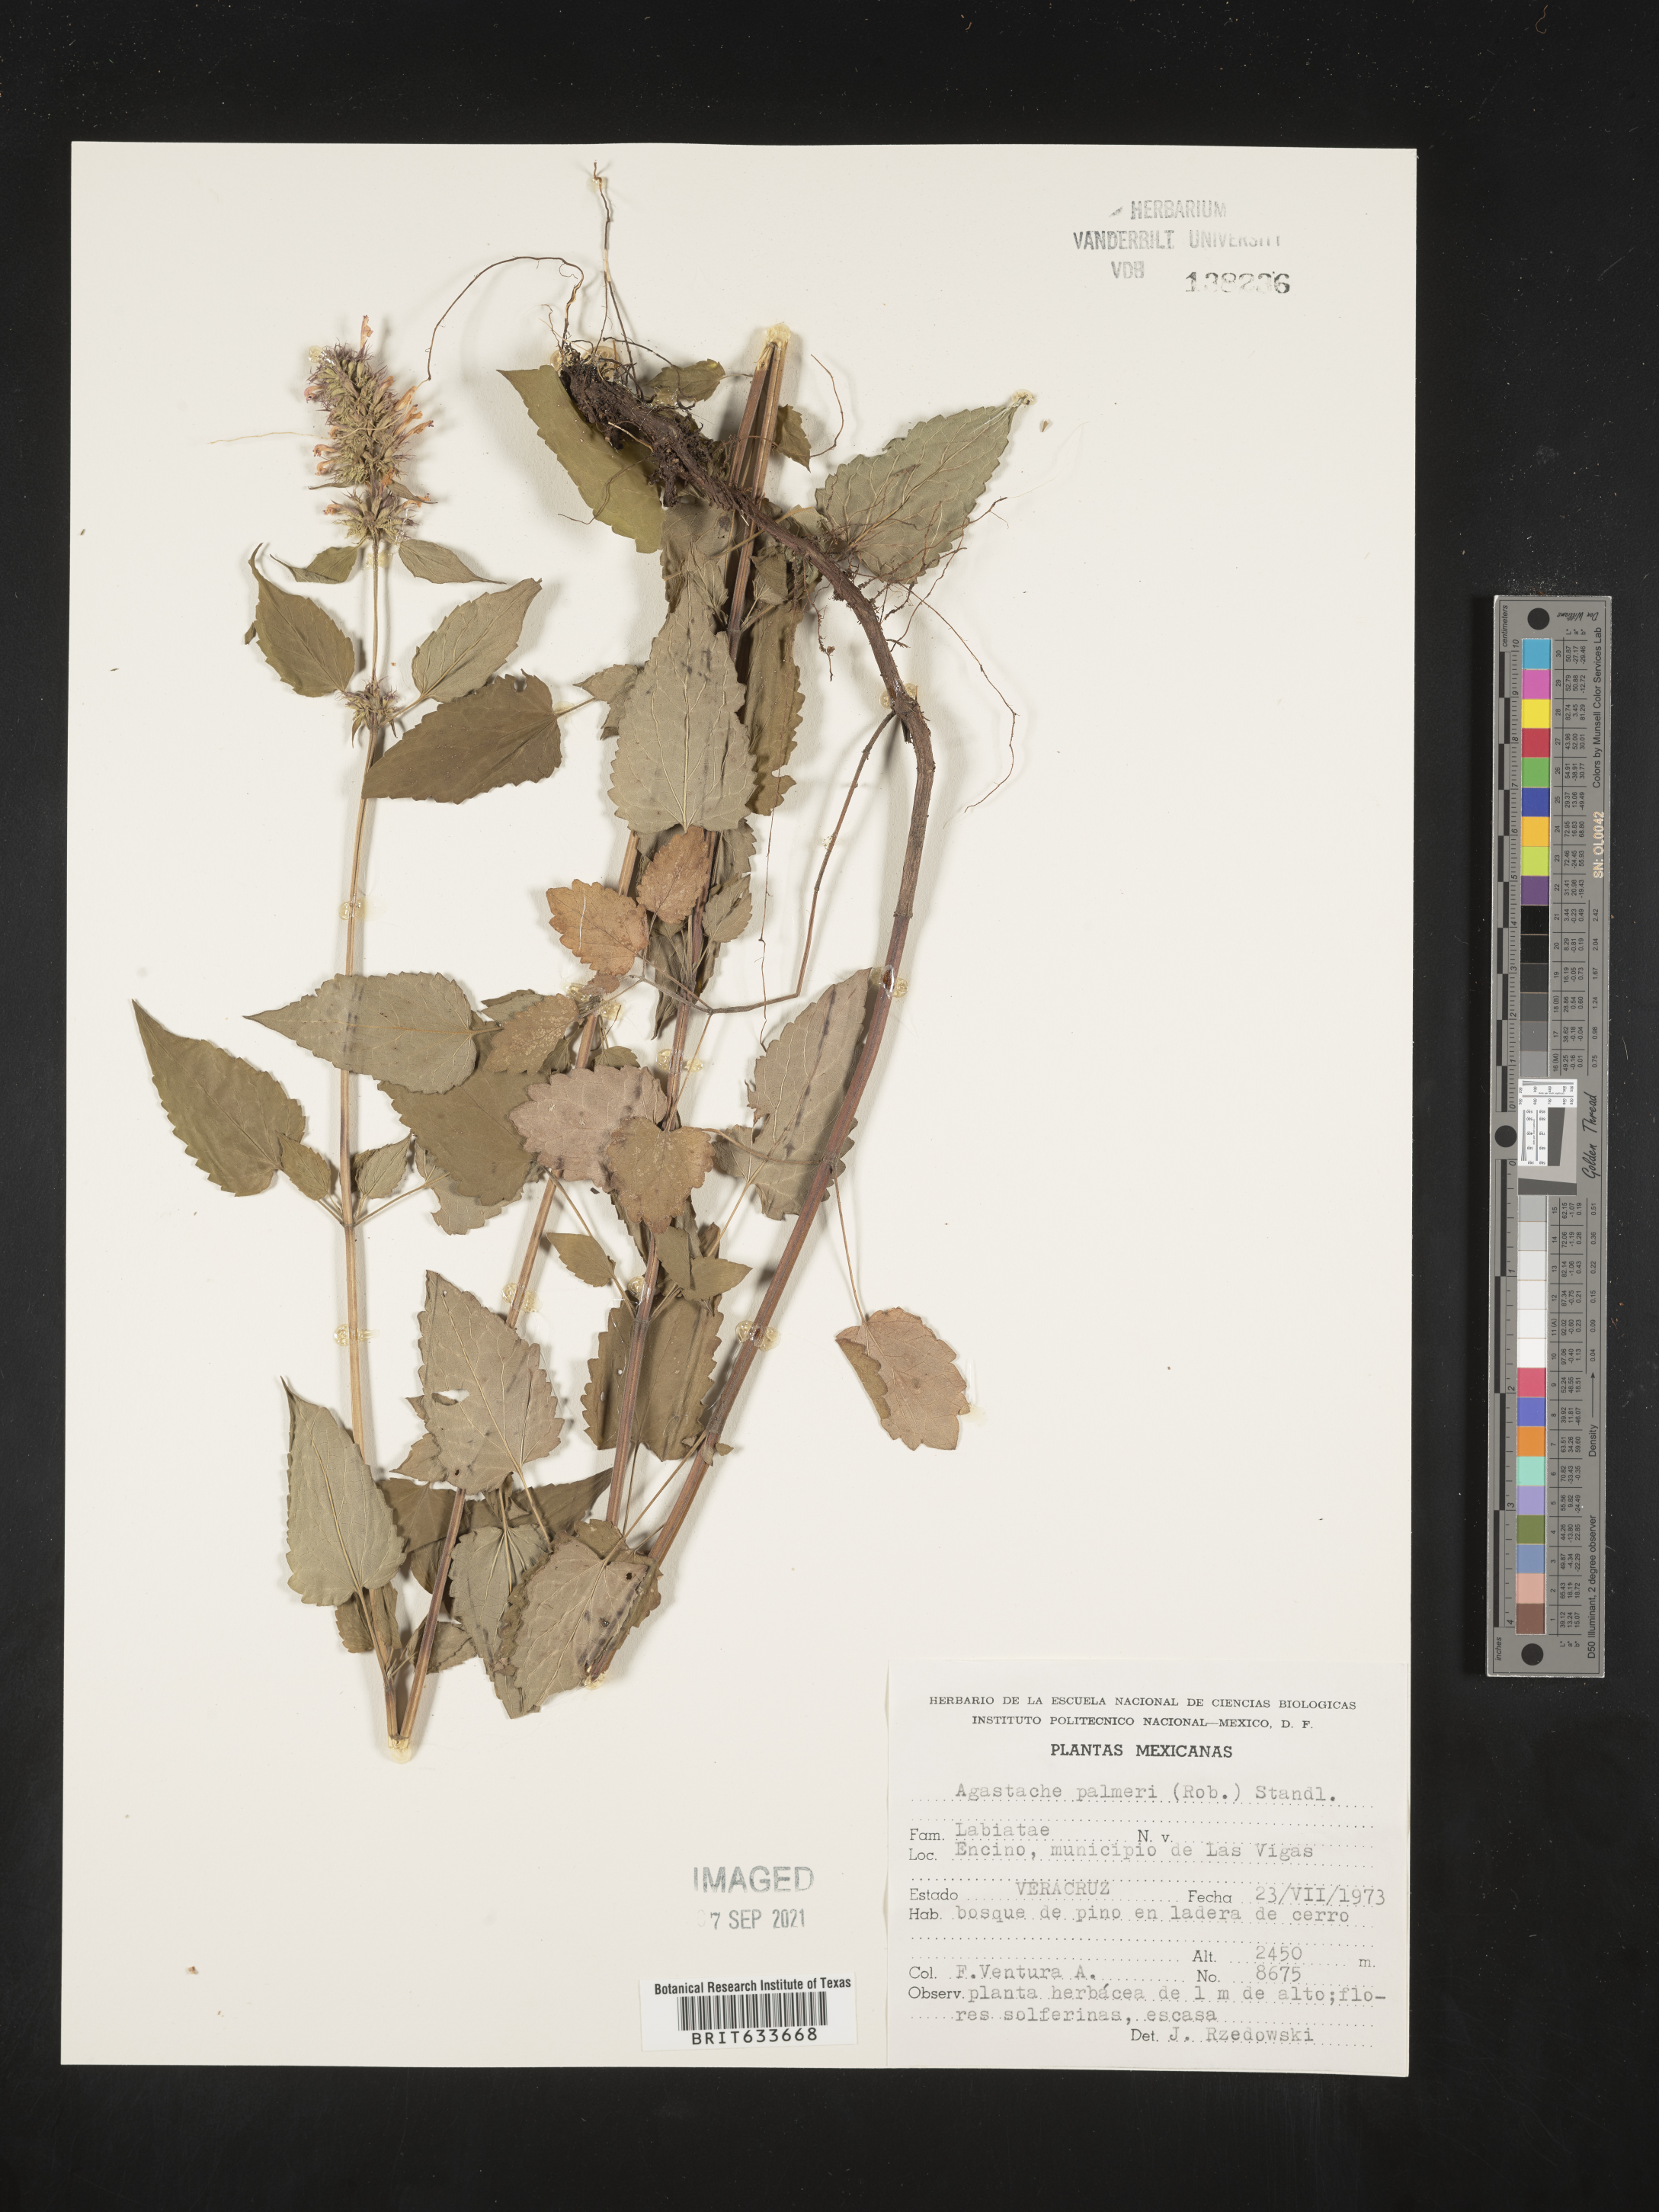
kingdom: Plantae
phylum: Tracheophyta
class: Magnoliopsida
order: Lamiales
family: Lamiaceae
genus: Agastache
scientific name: Agastache
